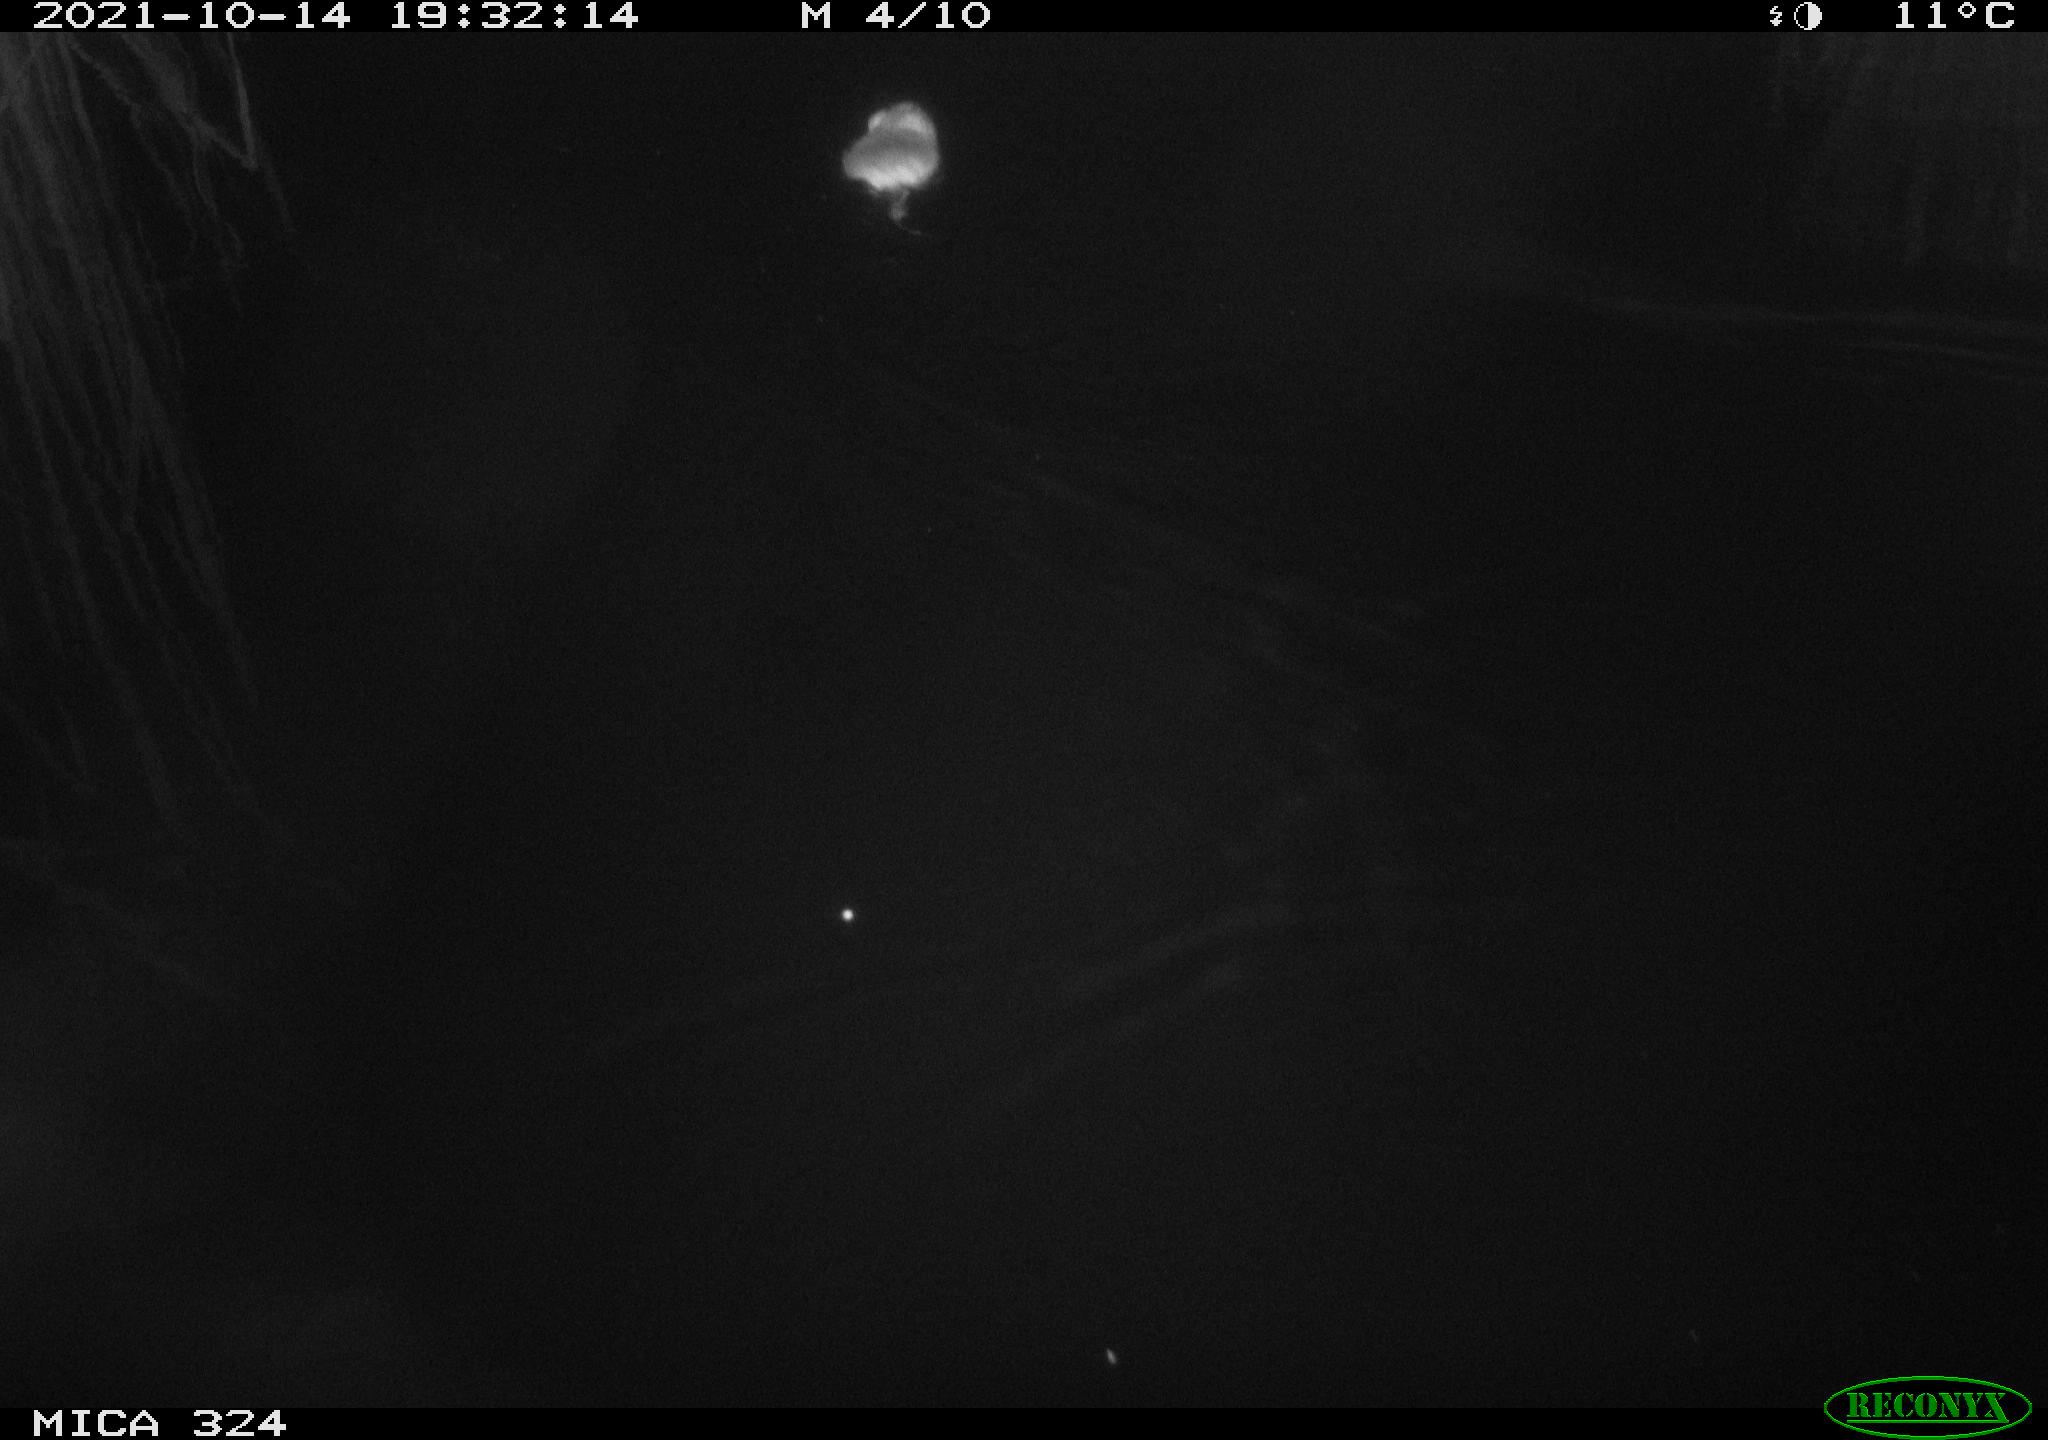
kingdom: Animalia
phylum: Chordata
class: Mammalia
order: Rodentia
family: Cricetidae
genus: Ondatra
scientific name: Ondatra zibethicus
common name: Muskrat
